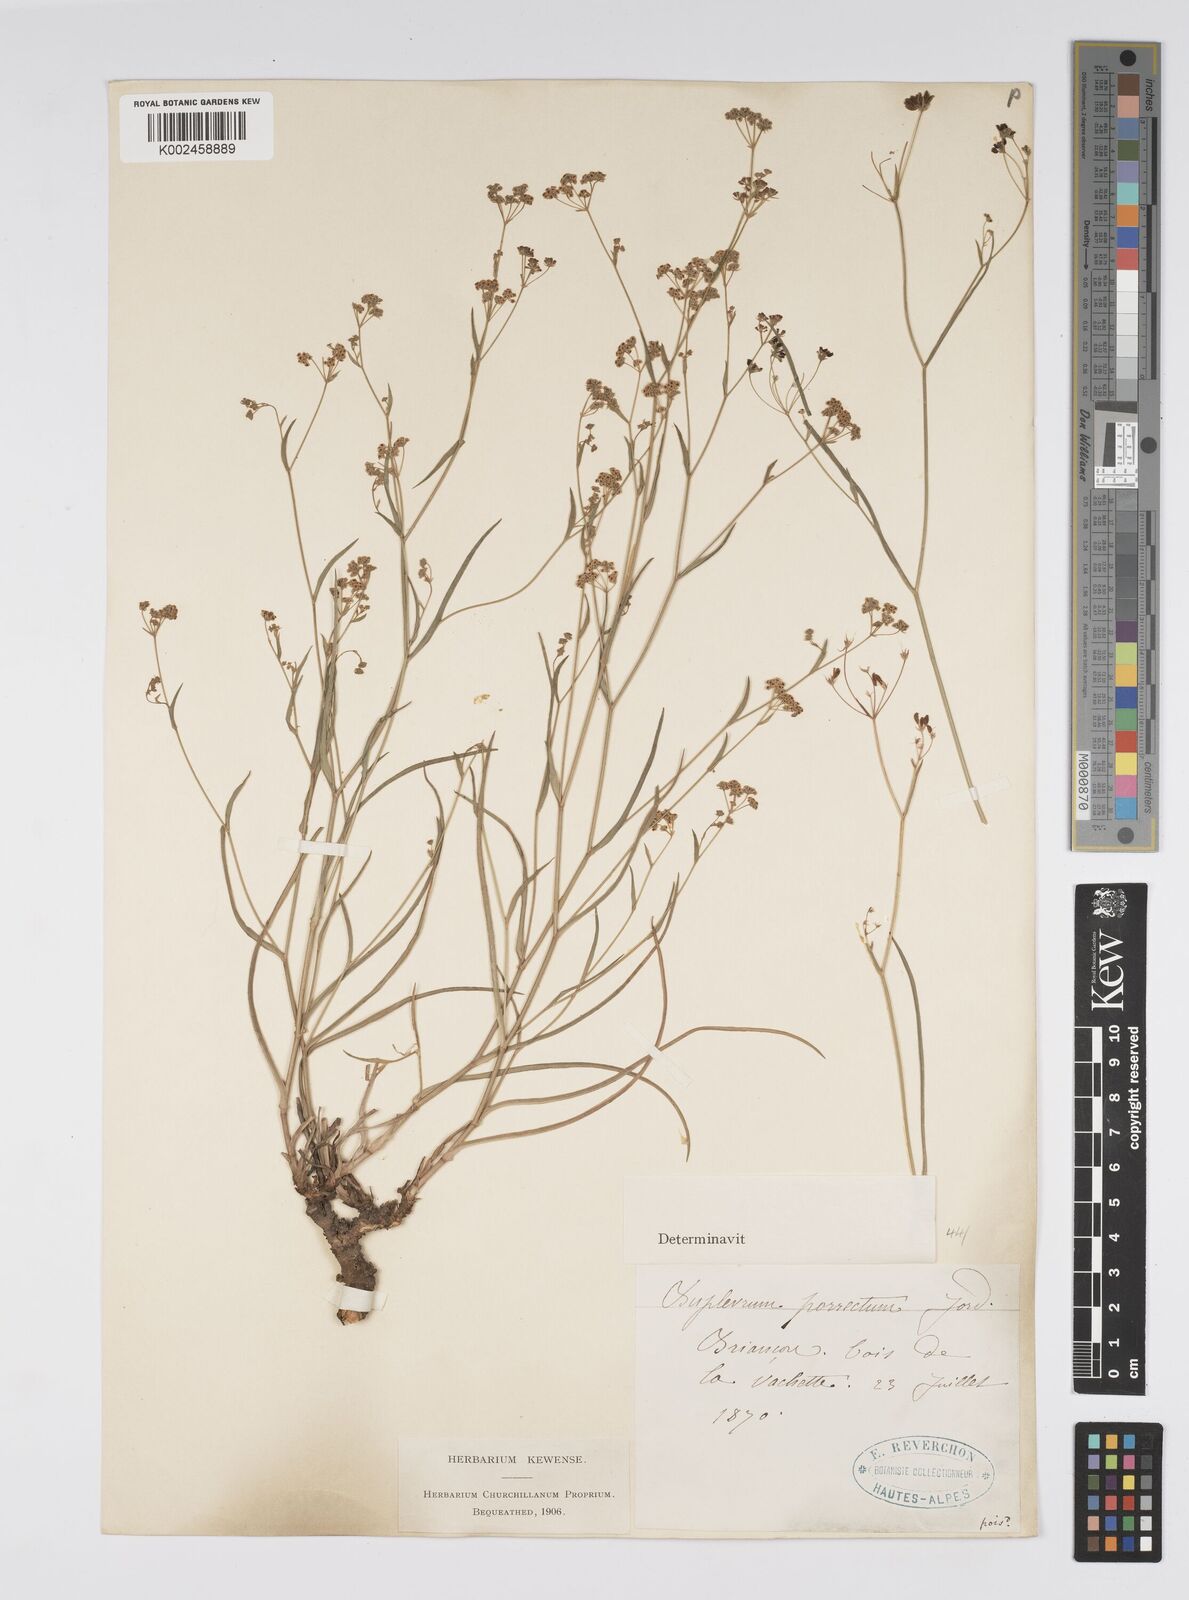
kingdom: Plantae
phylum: Tracheophyta
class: Magnoliopsida
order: Apiales
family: Apiaceae
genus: Bupleurum
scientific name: Bupleurum falcatum
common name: Sickle-leaved hare's-ear
